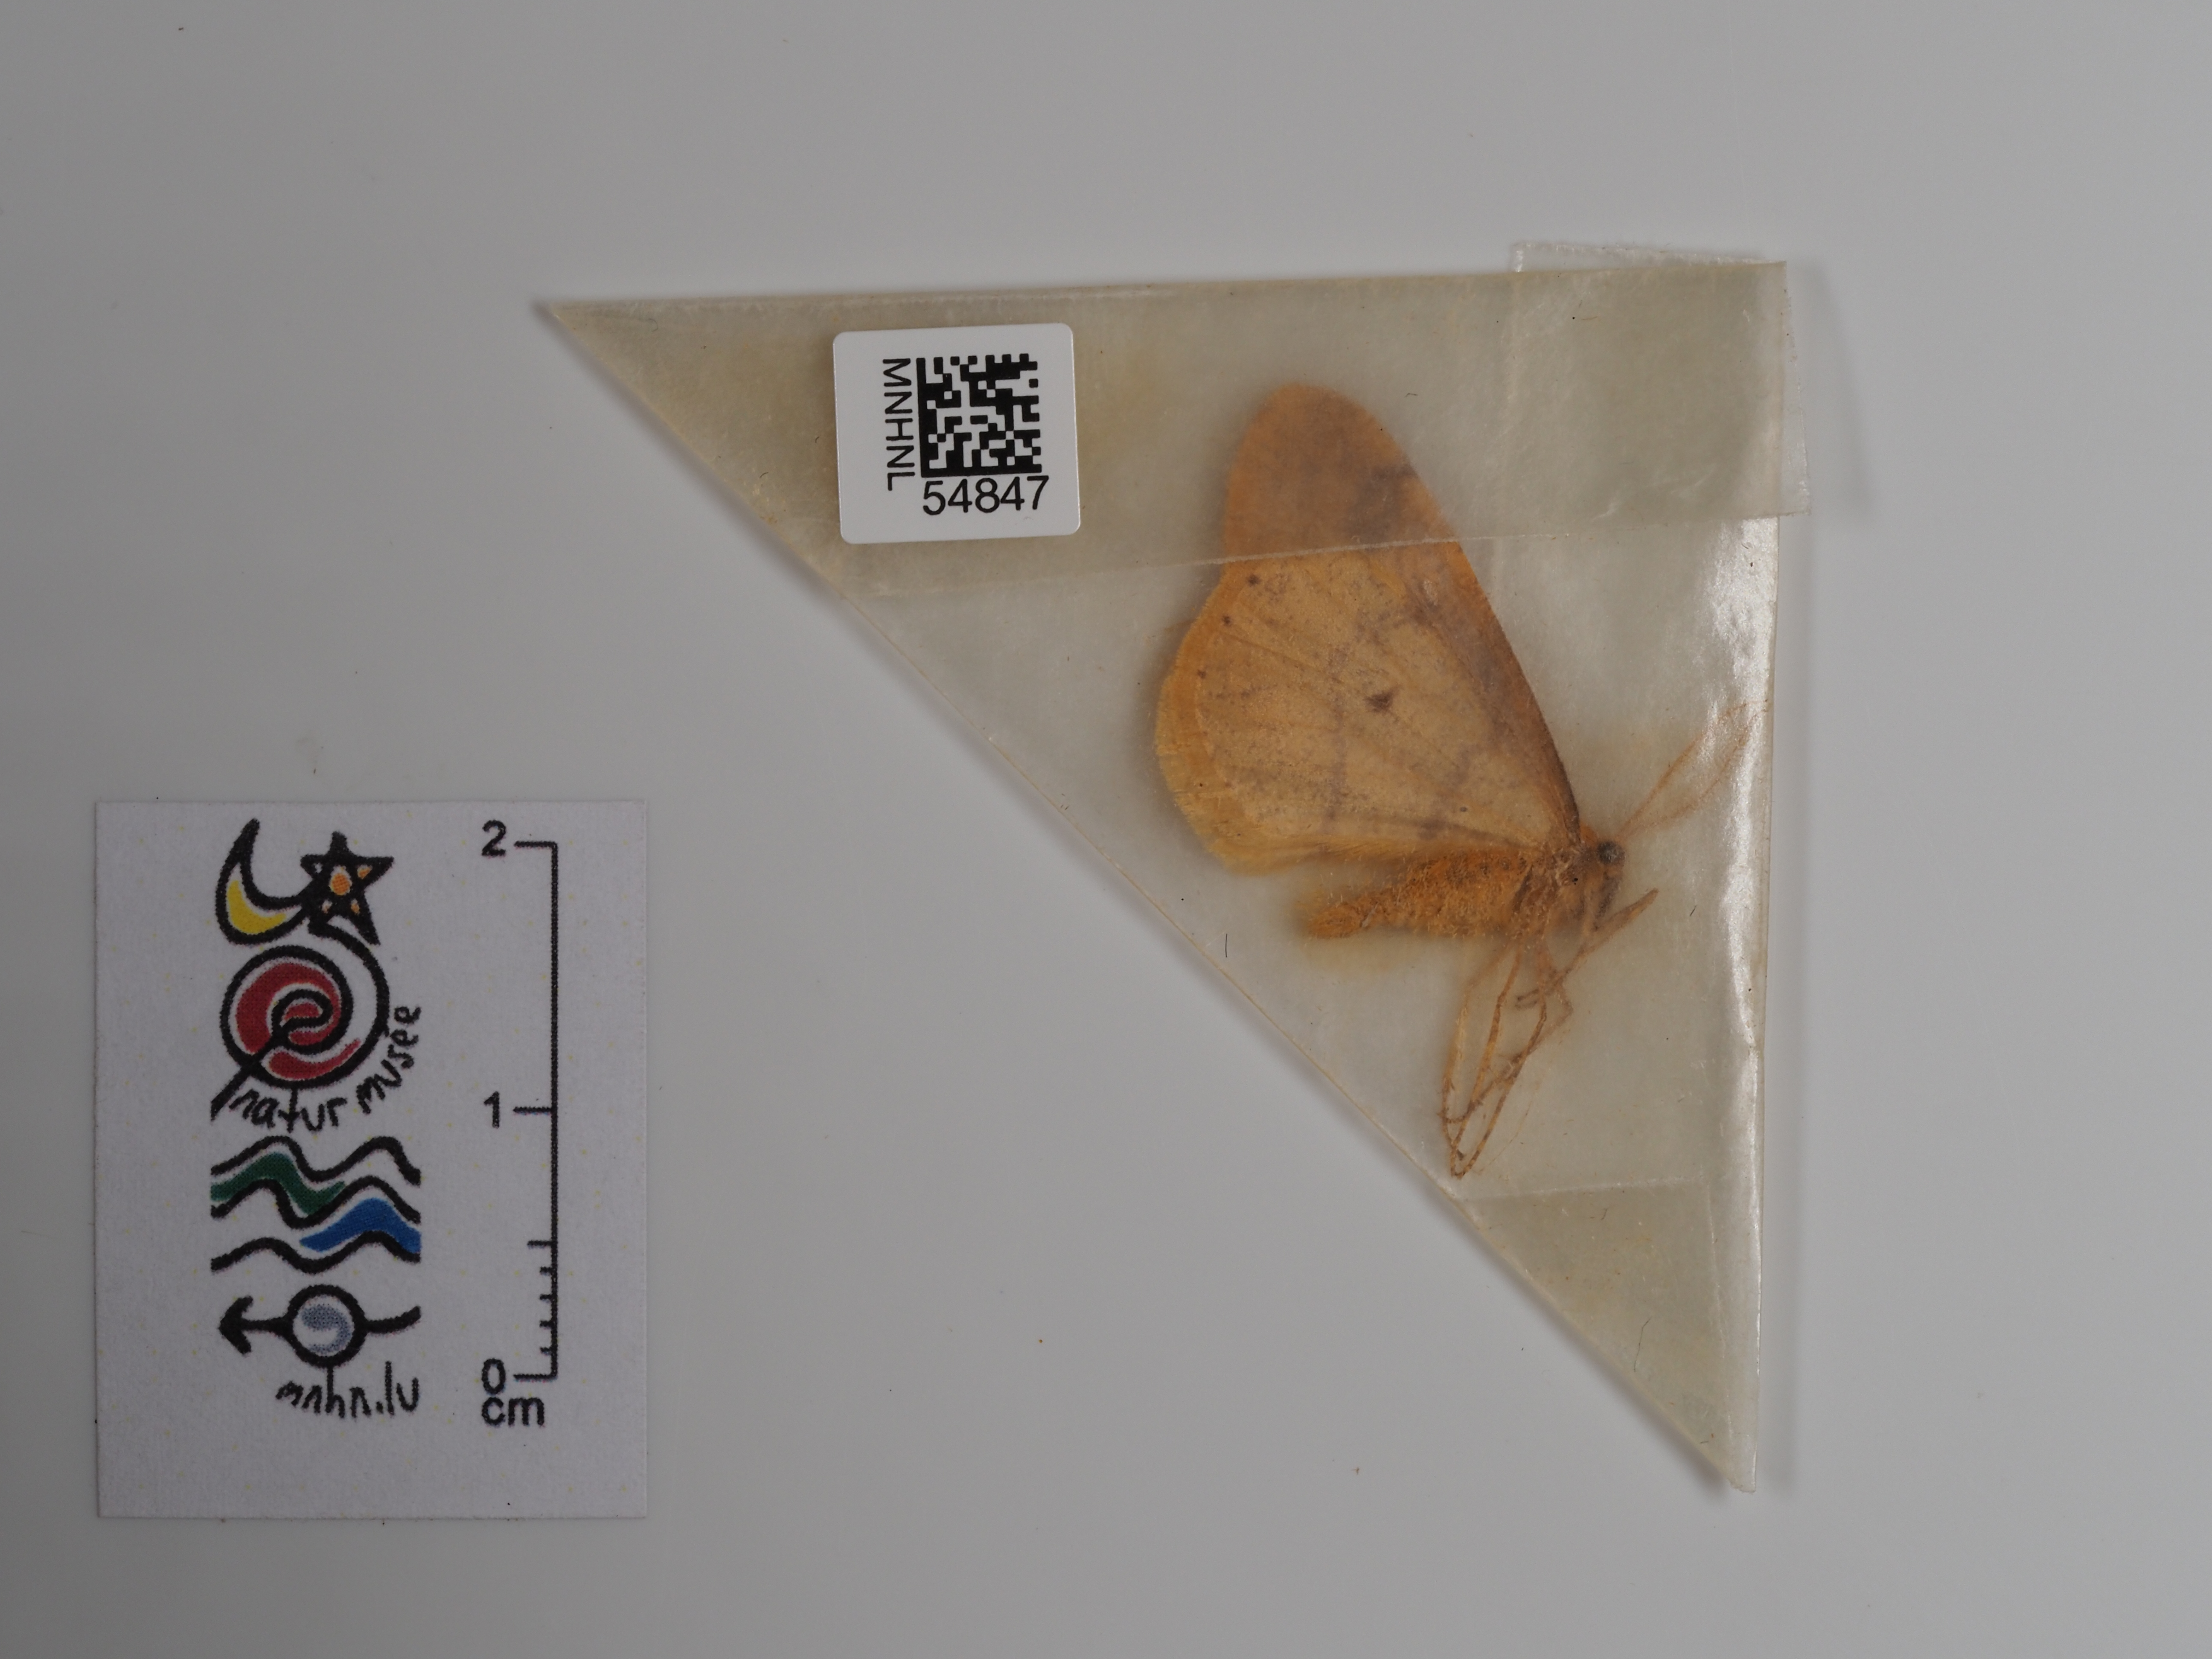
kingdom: Animalia
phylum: Arthropoda
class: Insecta
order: Lepidoptera
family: Geometridae
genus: Agriopis
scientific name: Agriopis aurantiaria
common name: Scarce umber
